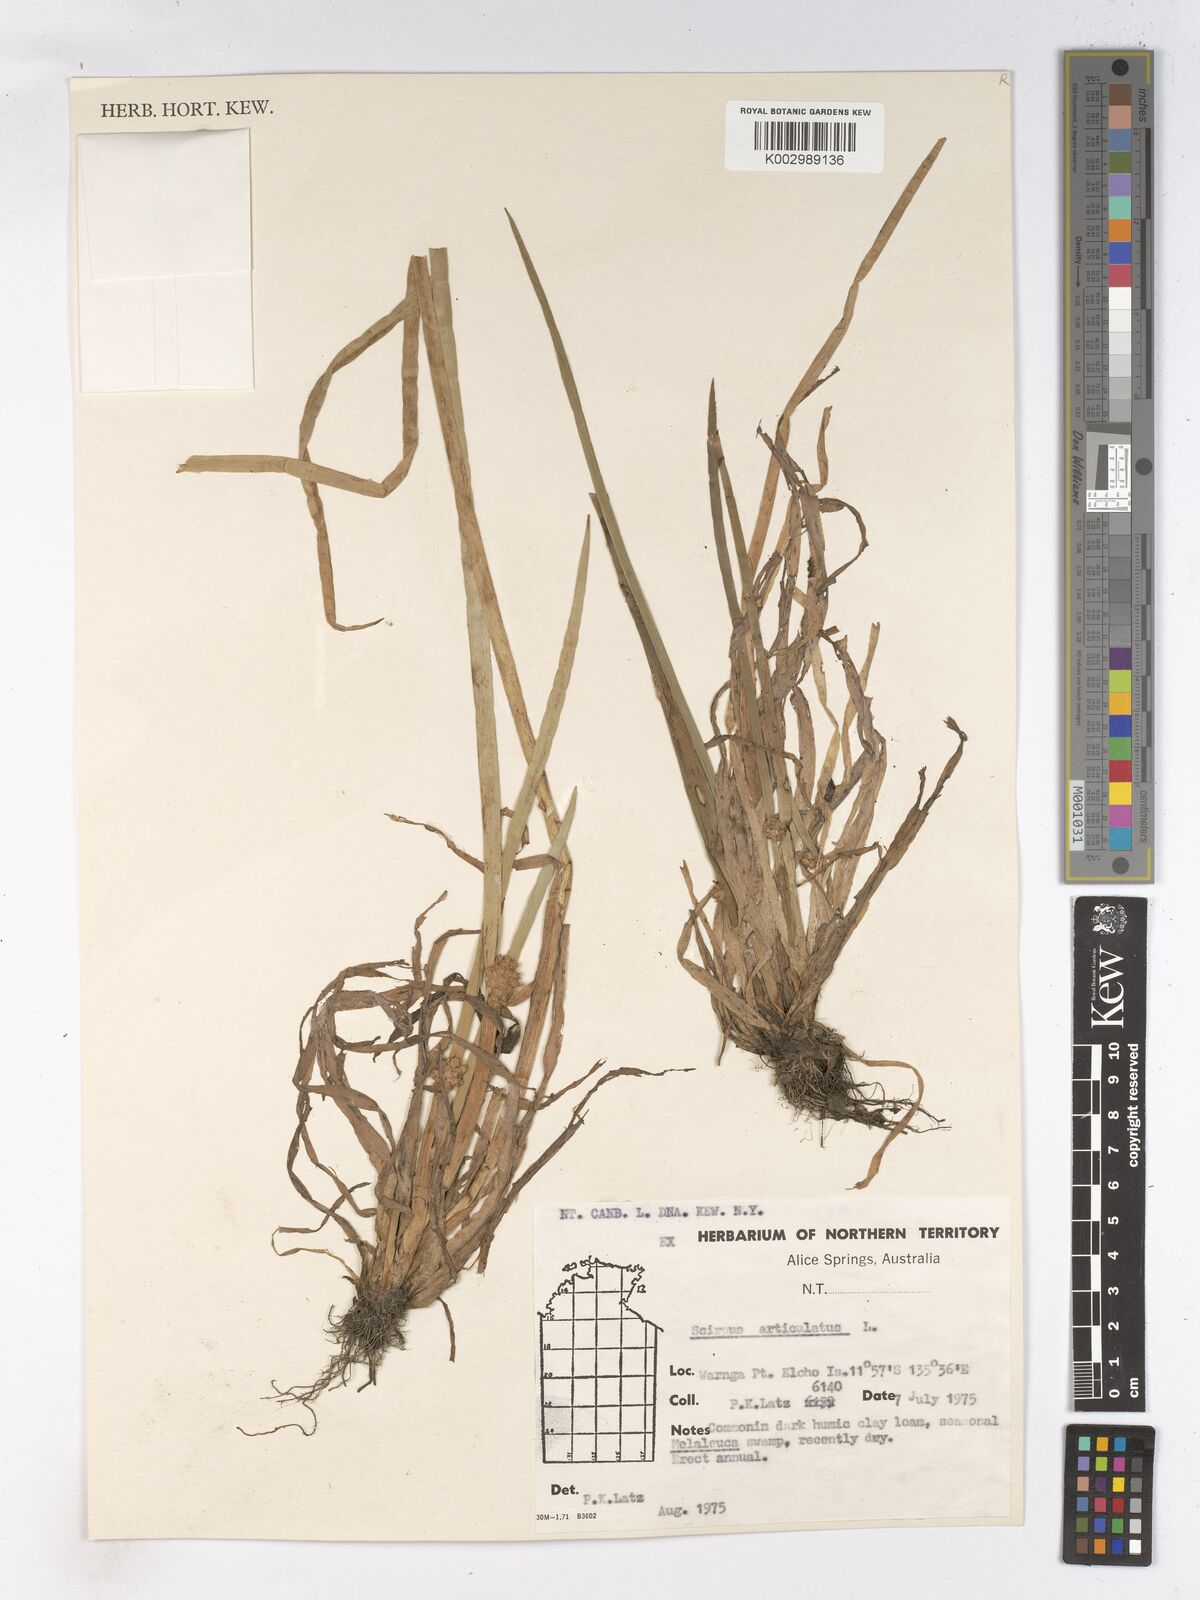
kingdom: Plantae
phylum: Tracheophyta
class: Liliopsida
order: Poales
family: Cyperaceae
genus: Schoenoplectiella
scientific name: Schoenoplectiella articulata
